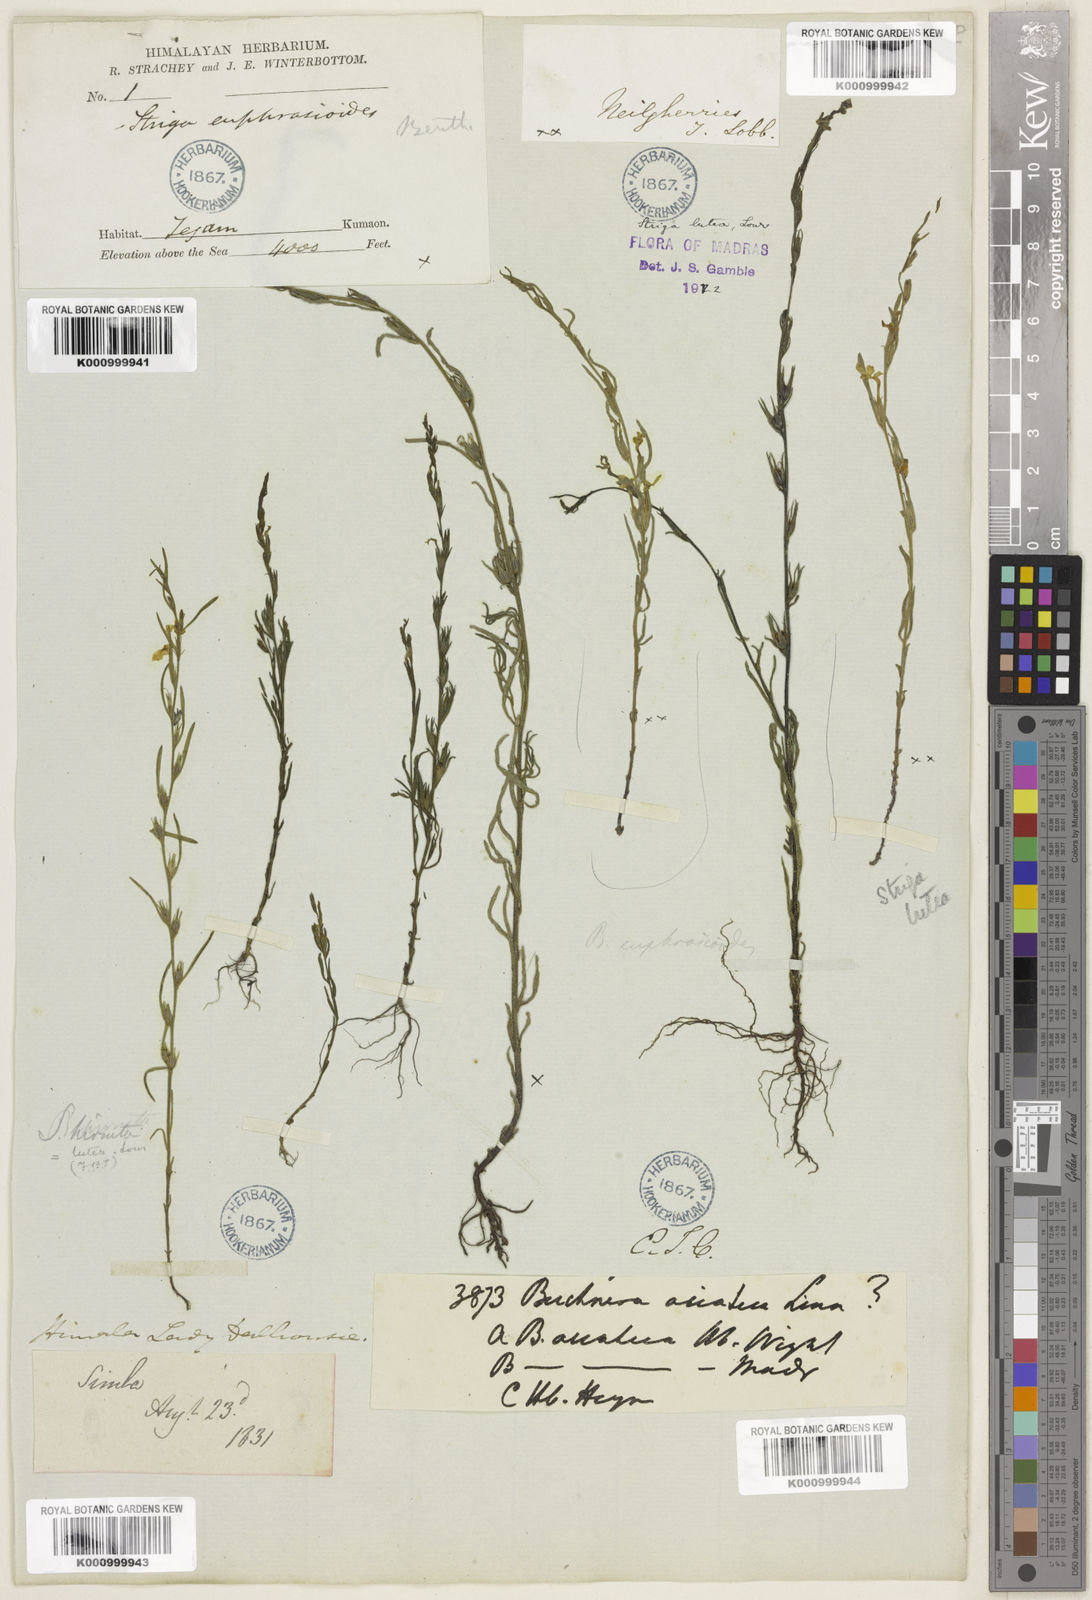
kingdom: Plantae
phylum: Tracheophyta
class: Magnoliopsida
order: Lamiales
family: Orobanchaceae
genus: Striga
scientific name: Striga angustifolia
